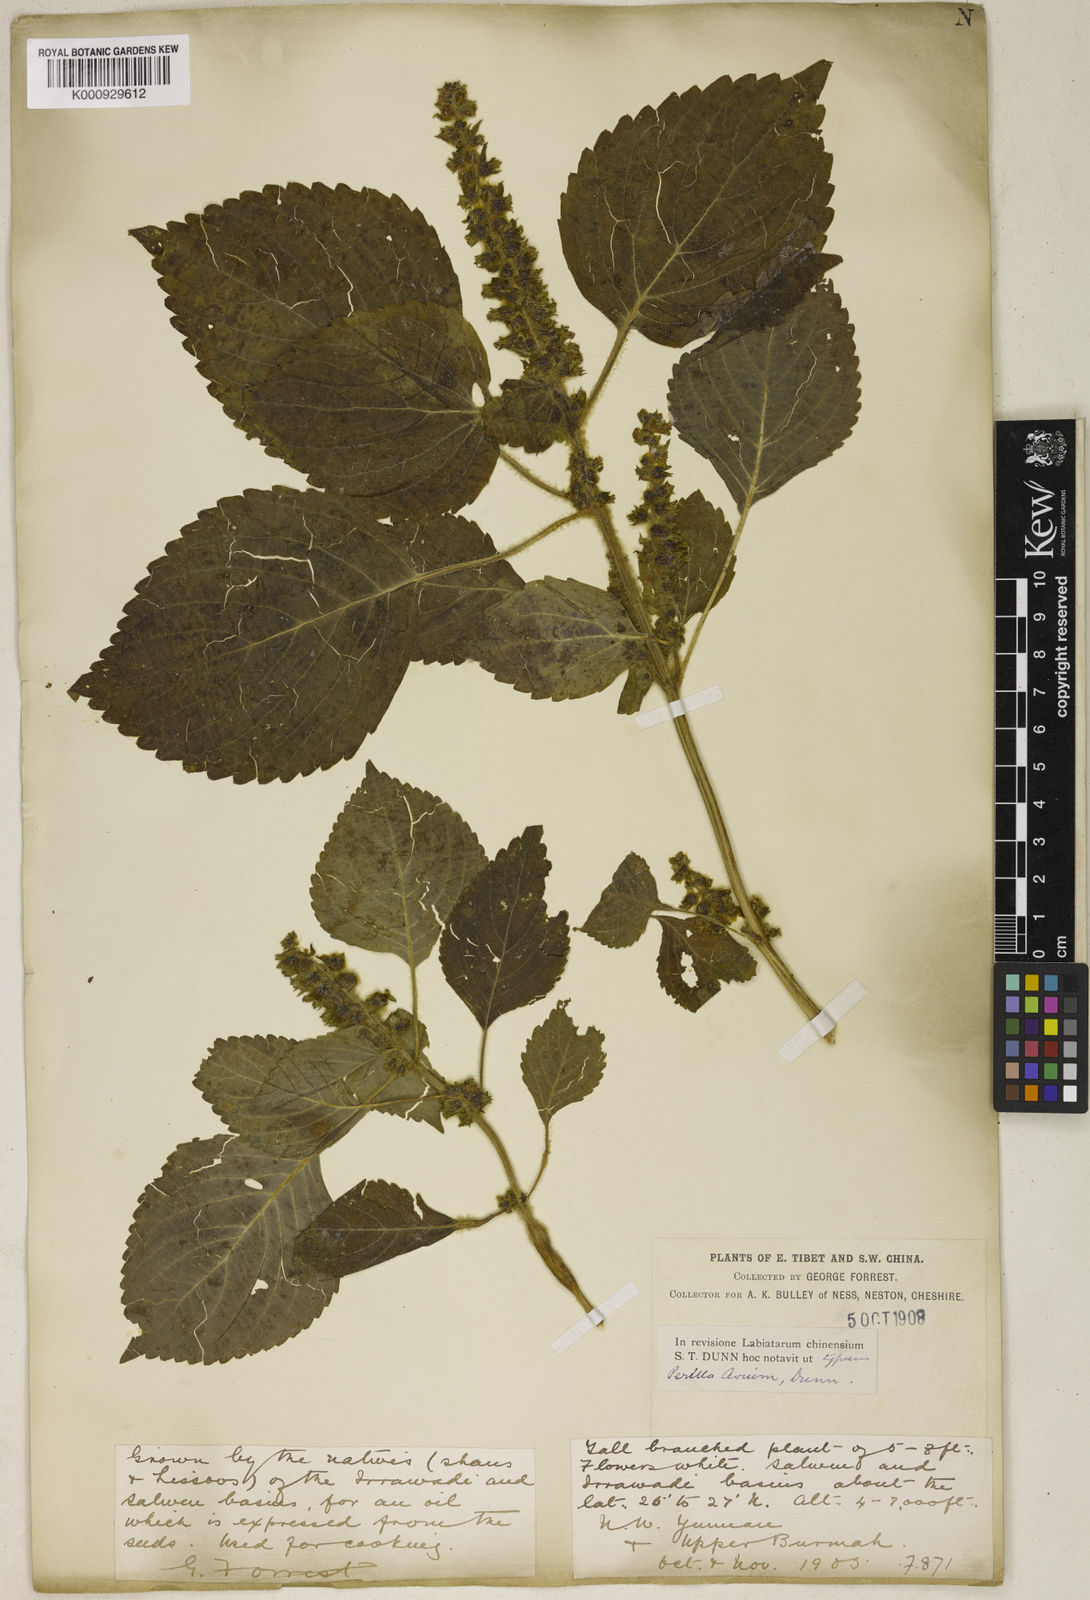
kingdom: Plantae
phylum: Tracheophyta
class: Magnoliopsida
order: Lamiales
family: Lamiaceae
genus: Perilla
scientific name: Perilla frutescens
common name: Perilla
